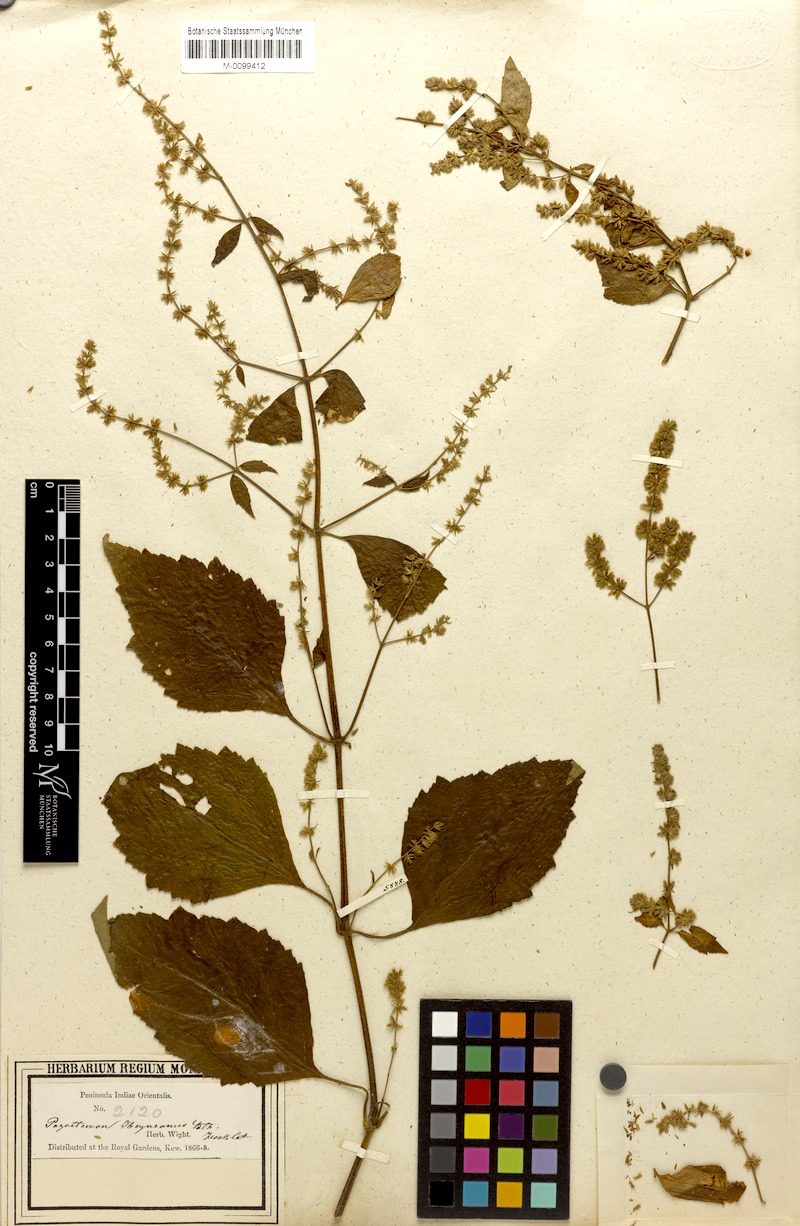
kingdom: Plantae
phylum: Tracheophyta
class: Magnoliopsida
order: Lamiales
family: Lamiaceae
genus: Pogostemon
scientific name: Pogostemon heyneanus
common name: Indian patchouli
